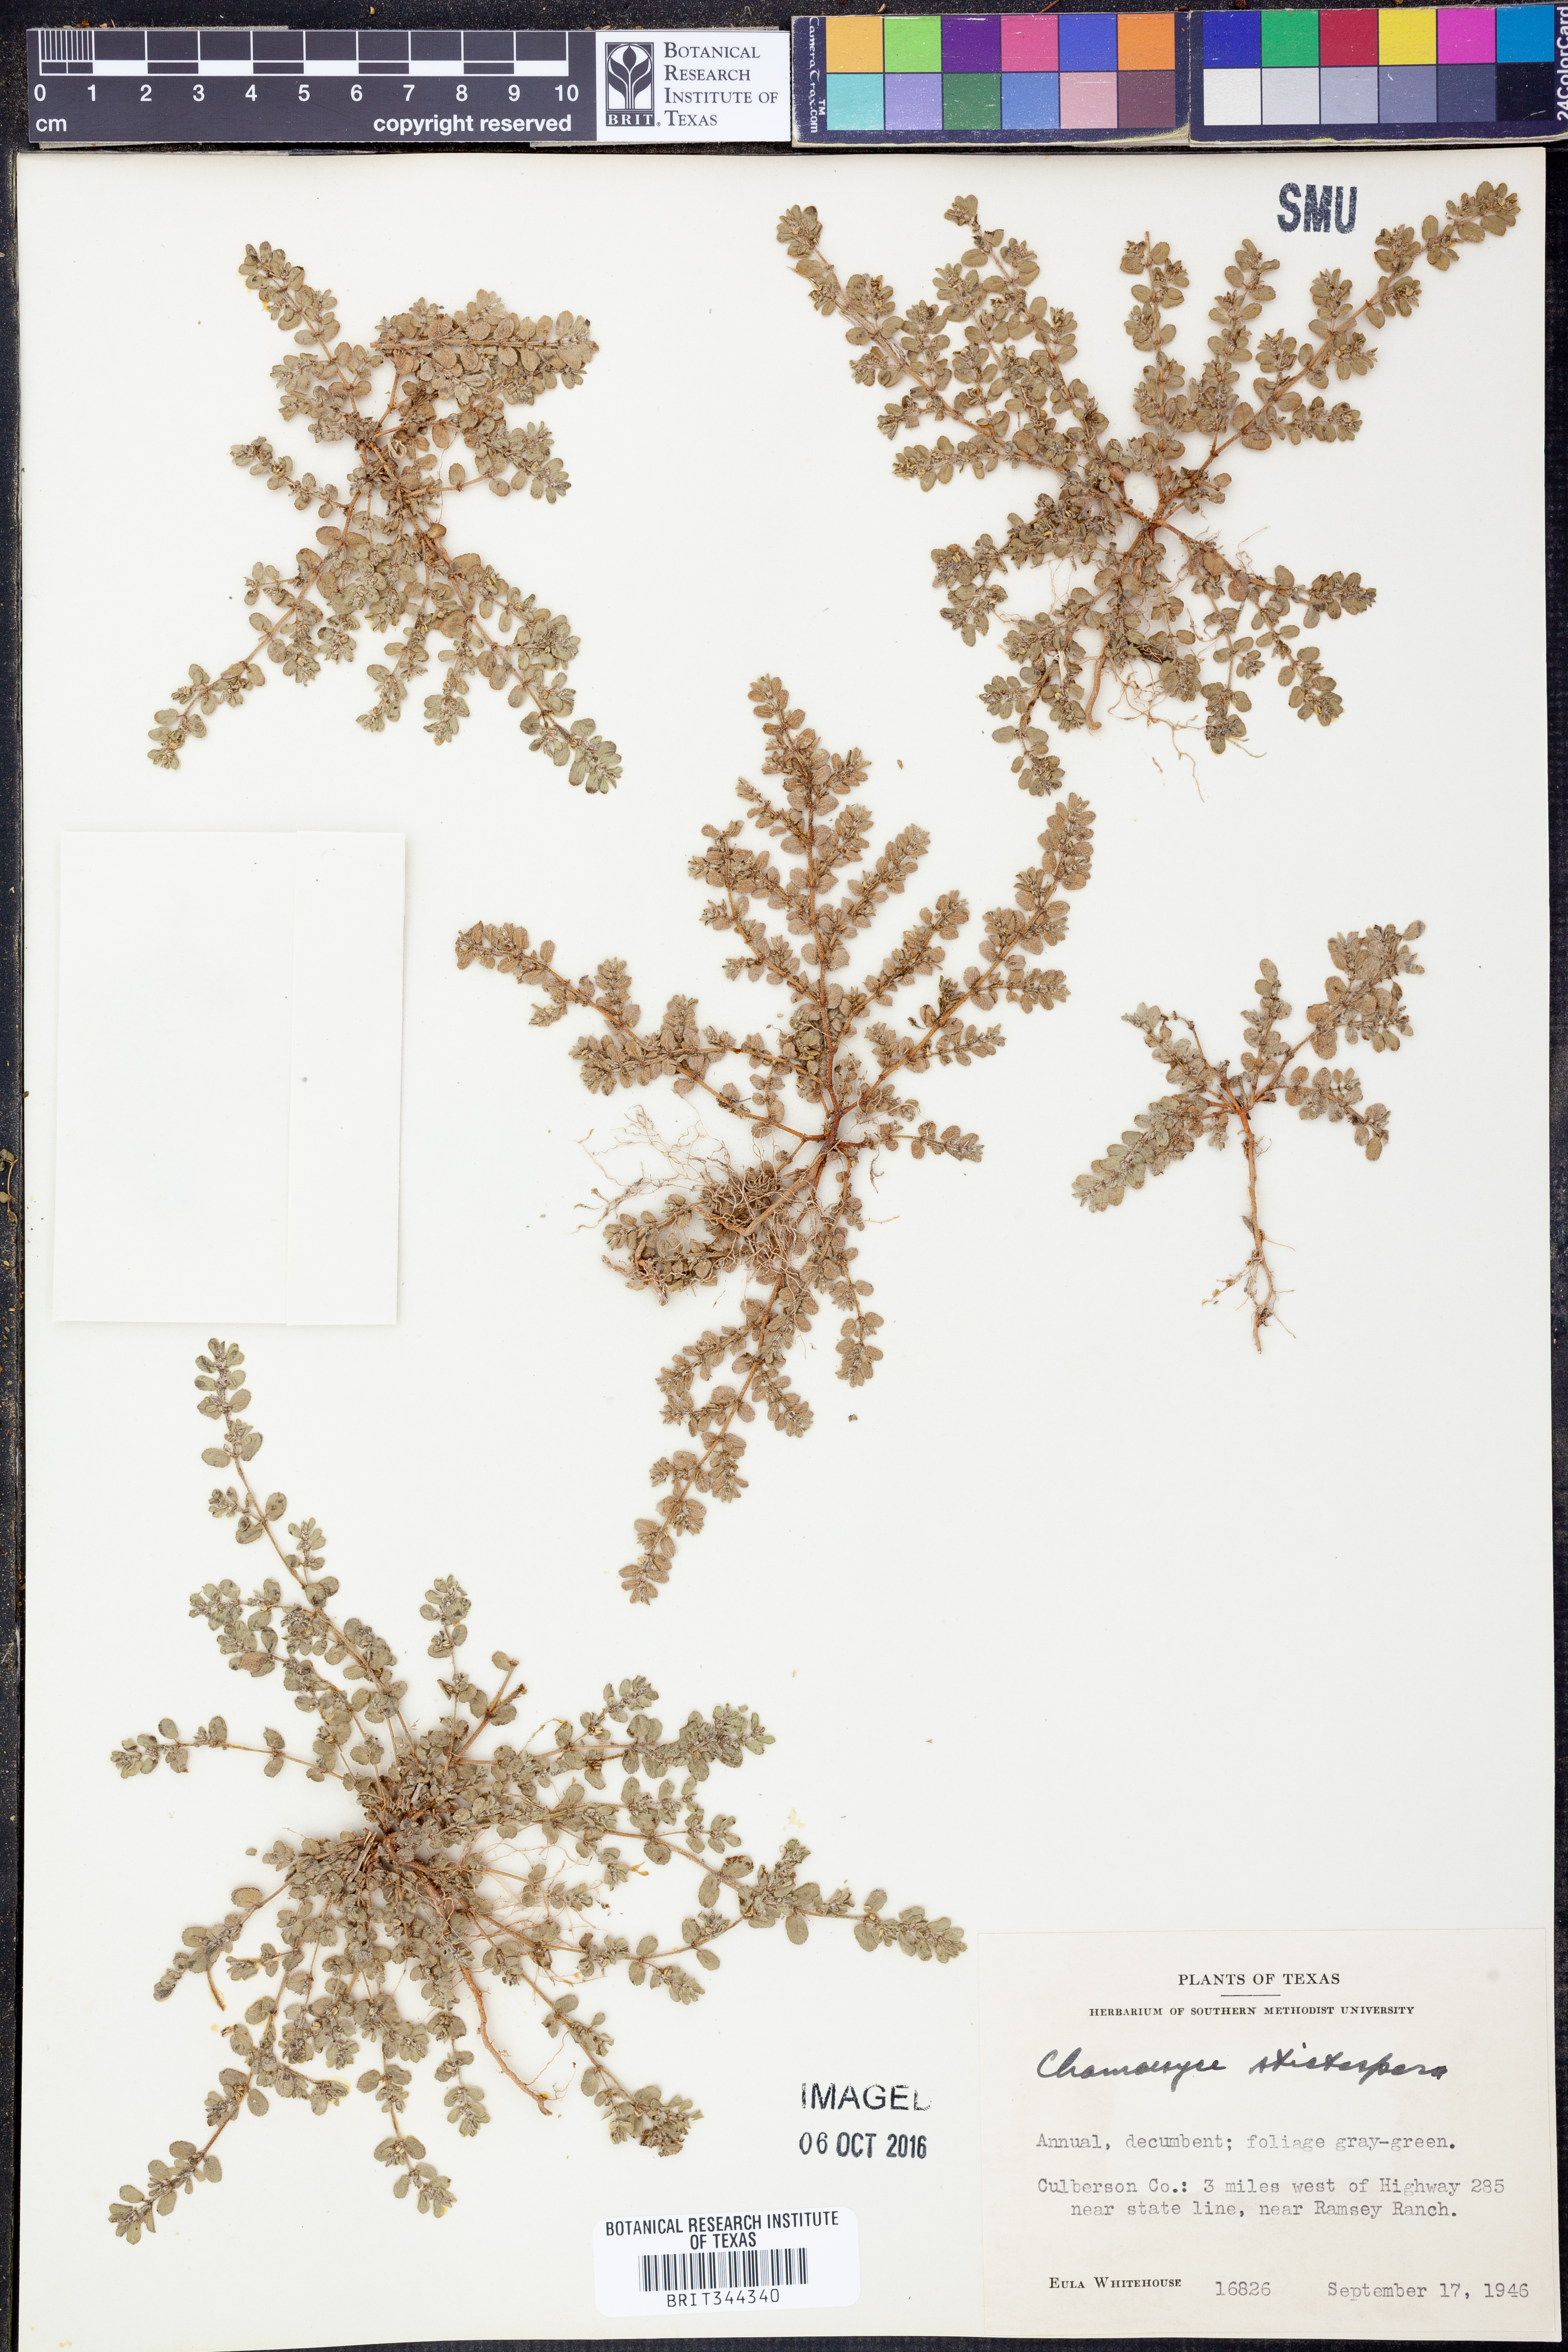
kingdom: Plantae
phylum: Tracheophyta
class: Magnoliopsida
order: Malpighiales
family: Euphorbiaceae
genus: Euphorbia
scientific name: Euphorbia stictospora
